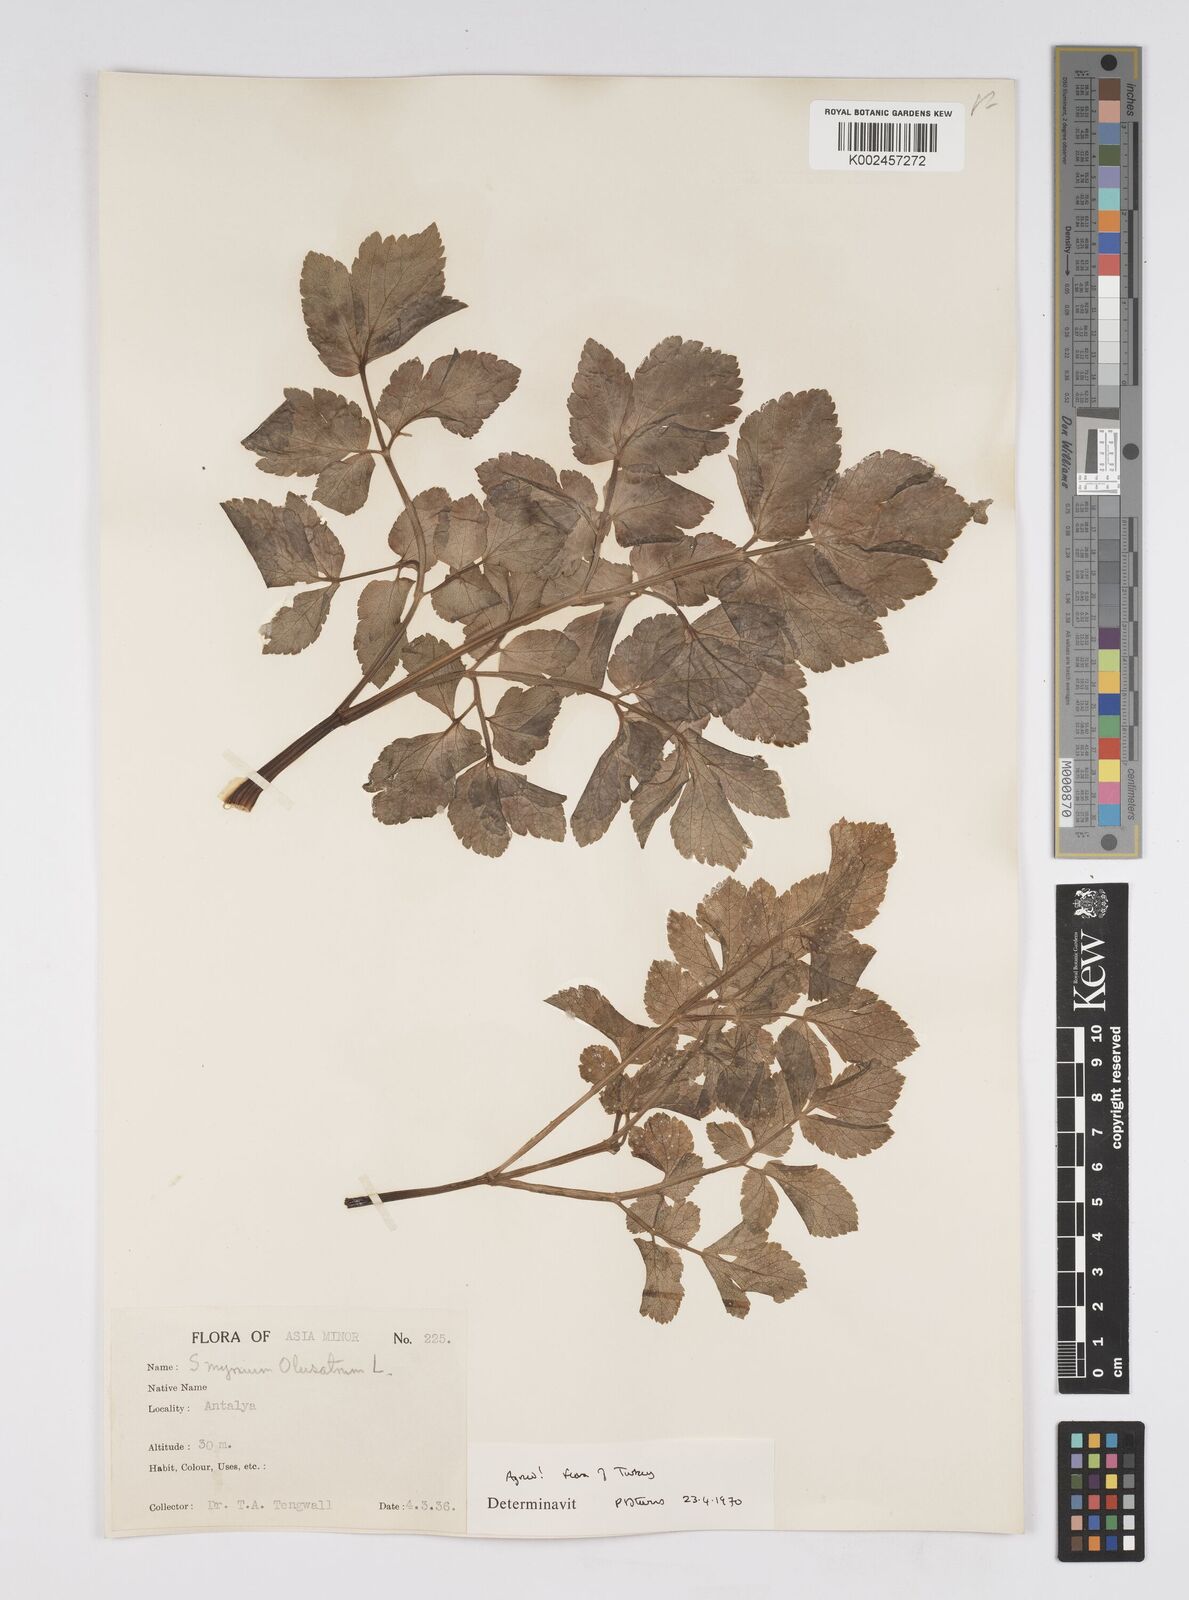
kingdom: Plantae
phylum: Tracheophyta
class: Magnoliopsida
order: Apiales
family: Apiaceae
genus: Smyrnium
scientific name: Smyrnium olusatrum
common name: Alexanders
